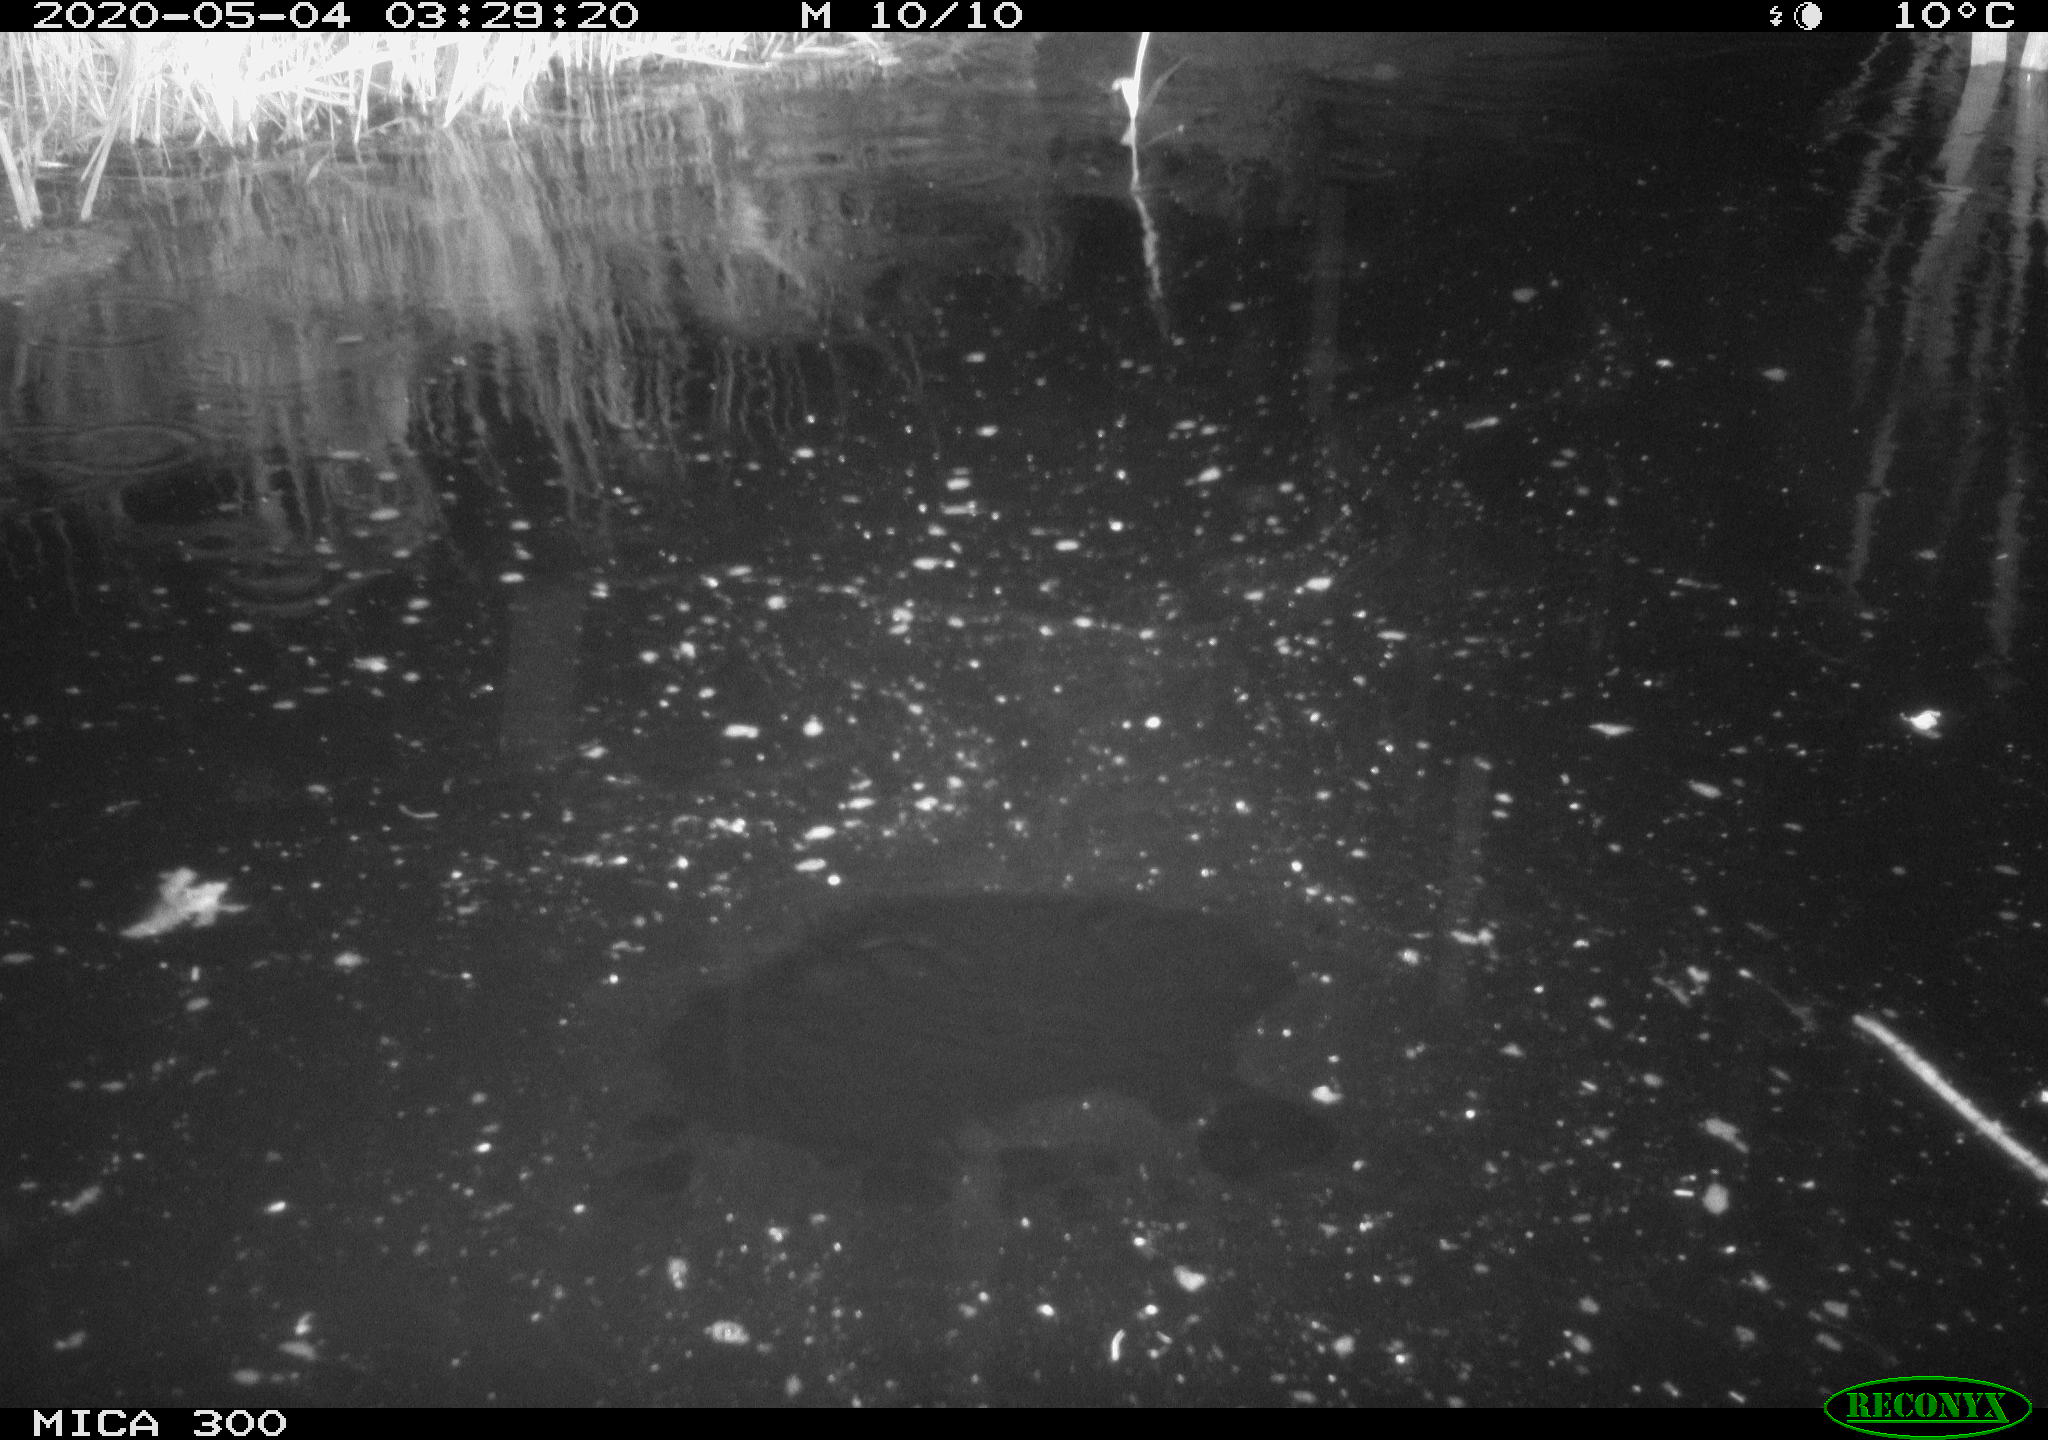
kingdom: Animalia
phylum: Chordata
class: Mammalia
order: Rodentia
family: Castoridae
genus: Castor
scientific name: Castor fiber
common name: Eurasian beaver
